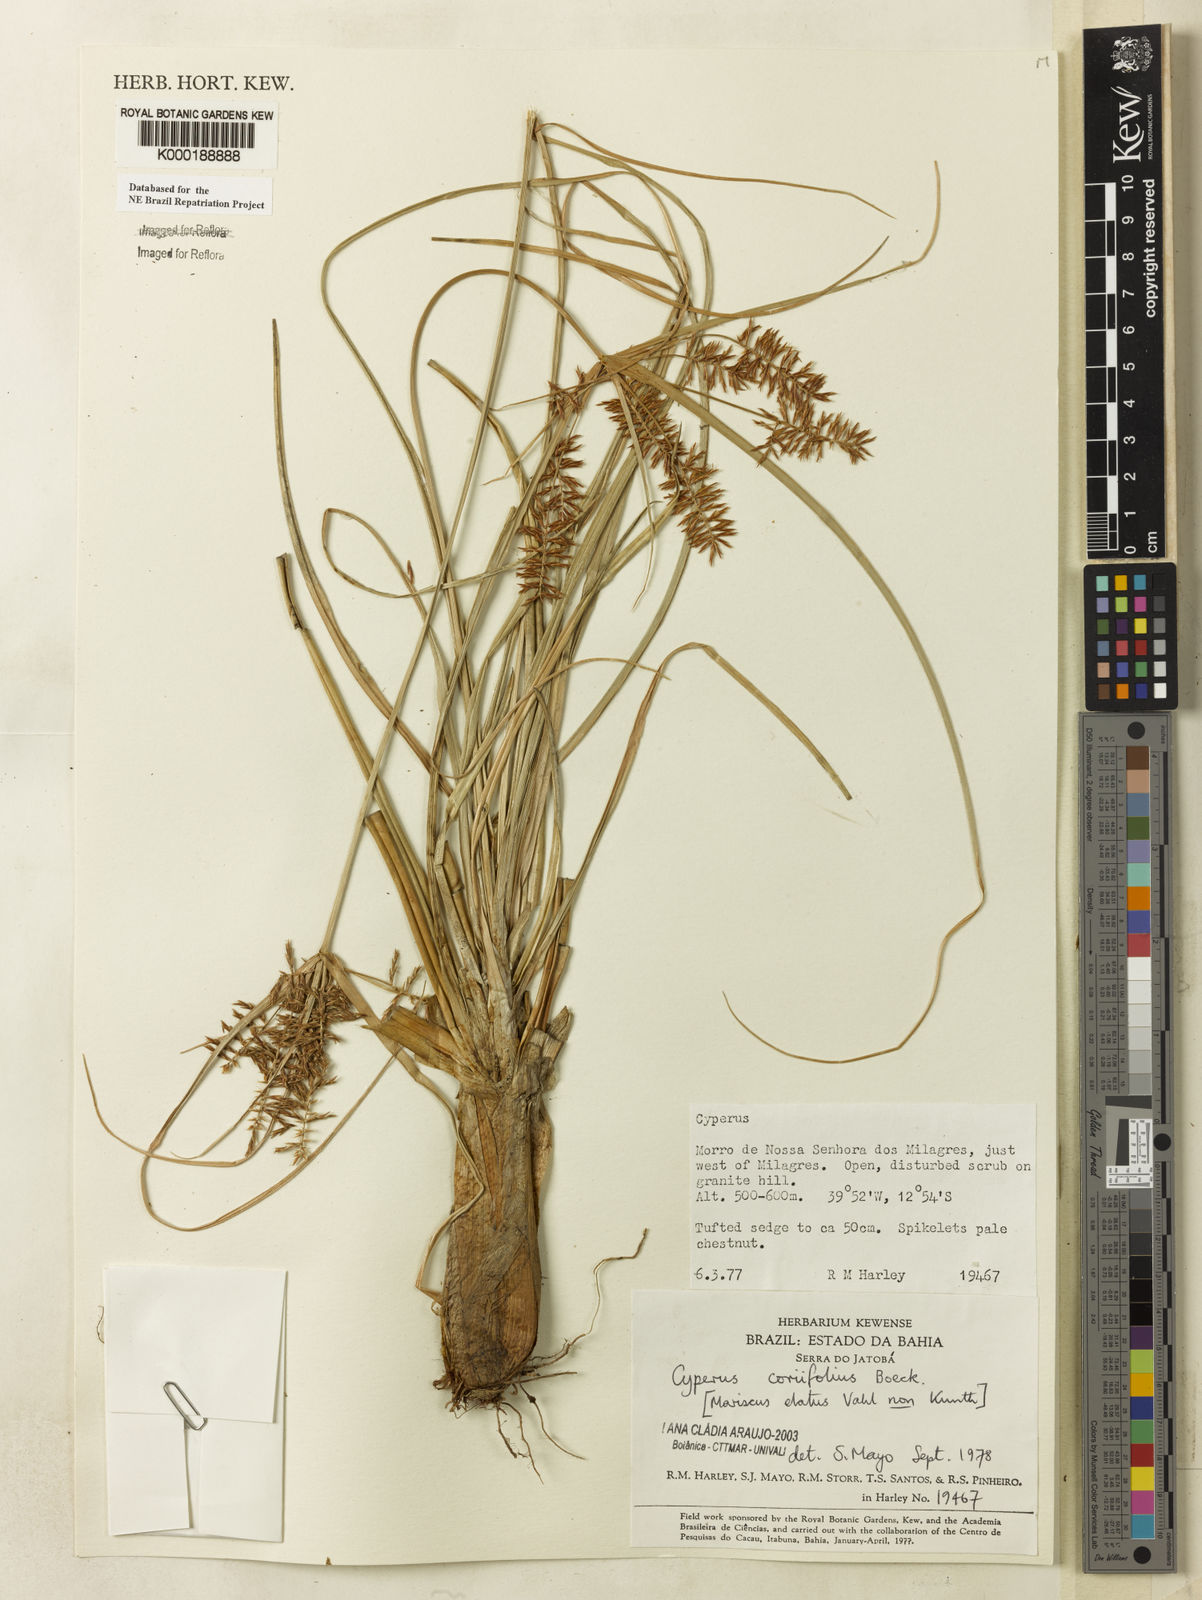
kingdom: Plantae
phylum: Tracheophyta
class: Liliopsida
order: Poales
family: Cyperaceae
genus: Cyperus
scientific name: Cyperus coriifolius
